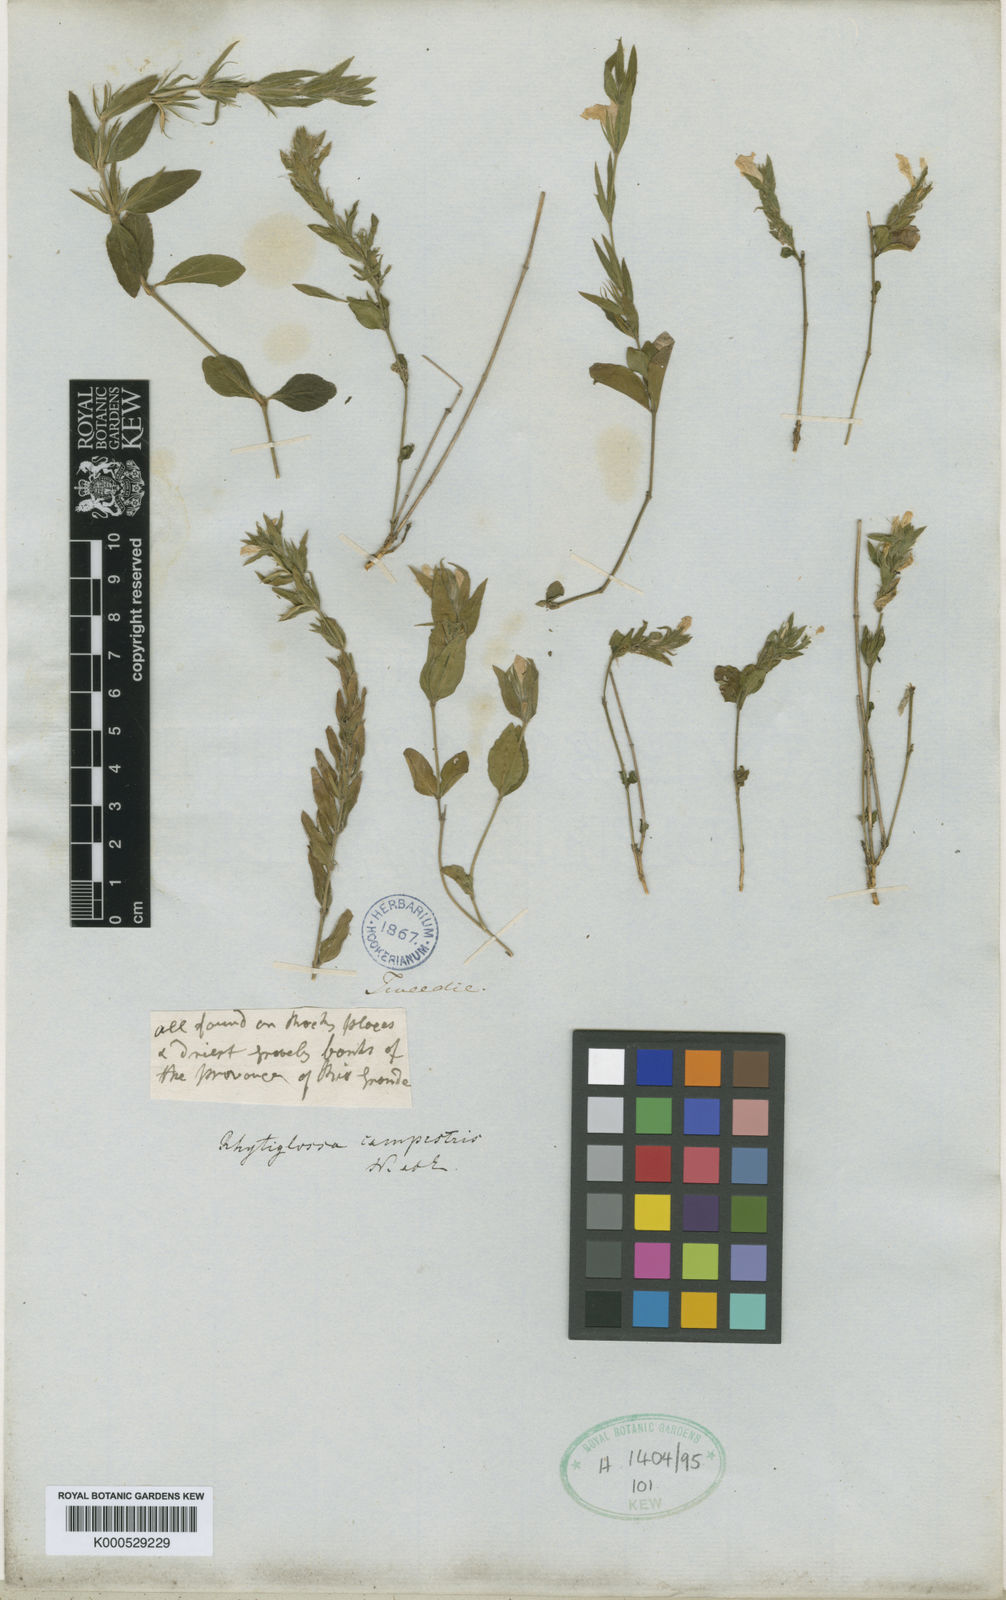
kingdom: Plantae
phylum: Tracheophyta
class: Magnoliopsida
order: Lamiales
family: Acanthaceae
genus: Justicia
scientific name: Justicia axillaris
